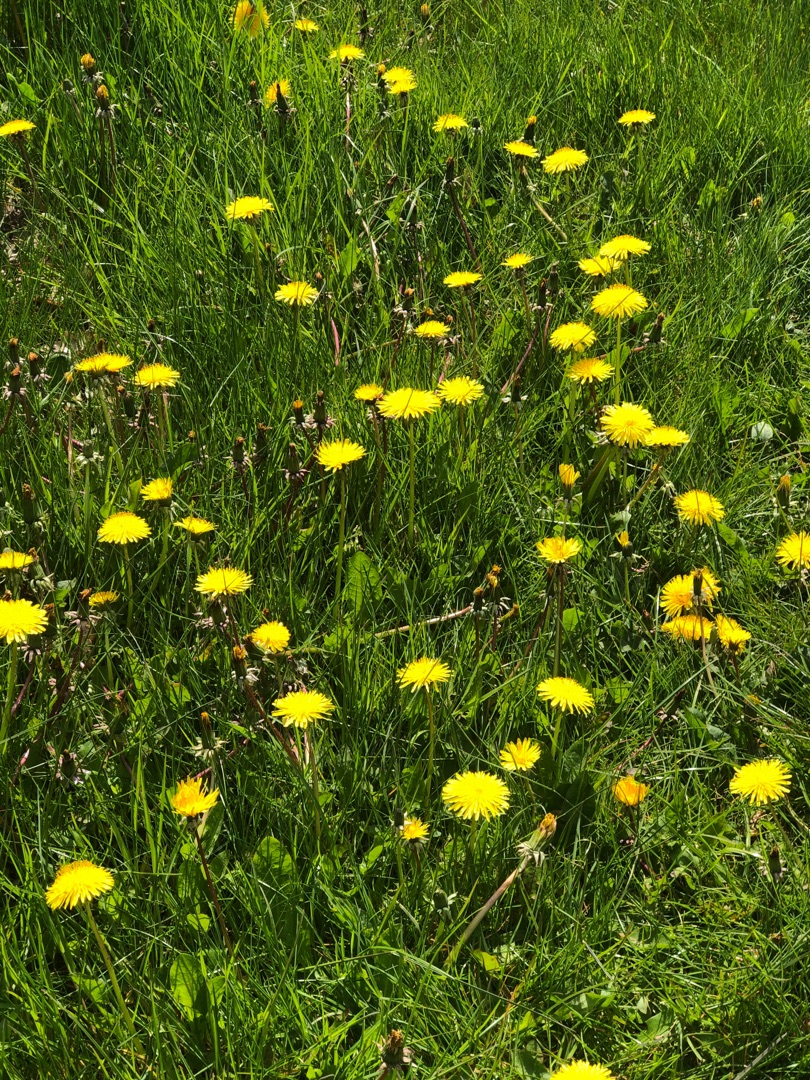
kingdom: Plantae
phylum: Tracheophyta
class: Magnoliopsida
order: Asterales
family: Asteraceae
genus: Taraxacum
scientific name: Taraxacum
